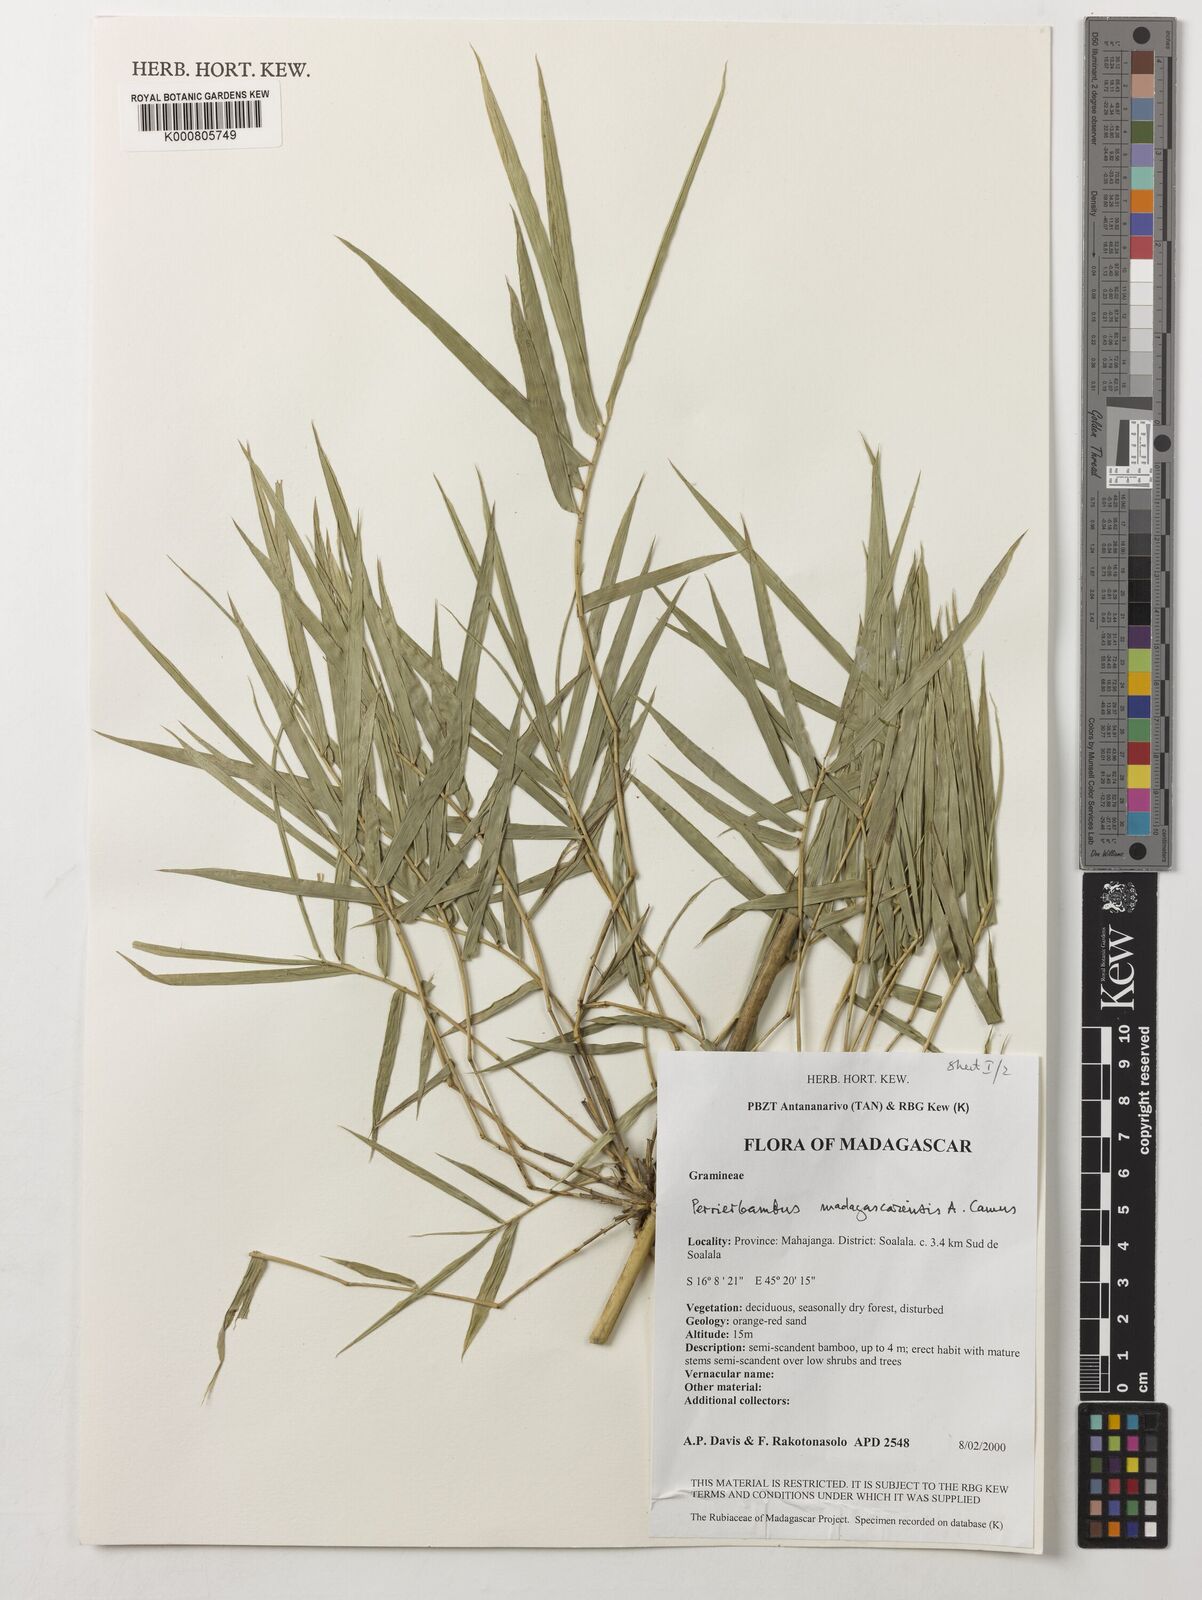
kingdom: Plantae
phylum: Tracheophyta
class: Liliopsida
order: Poales
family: Poaceae
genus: Perrierbambus
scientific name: Perrierbambus madagascariensis
